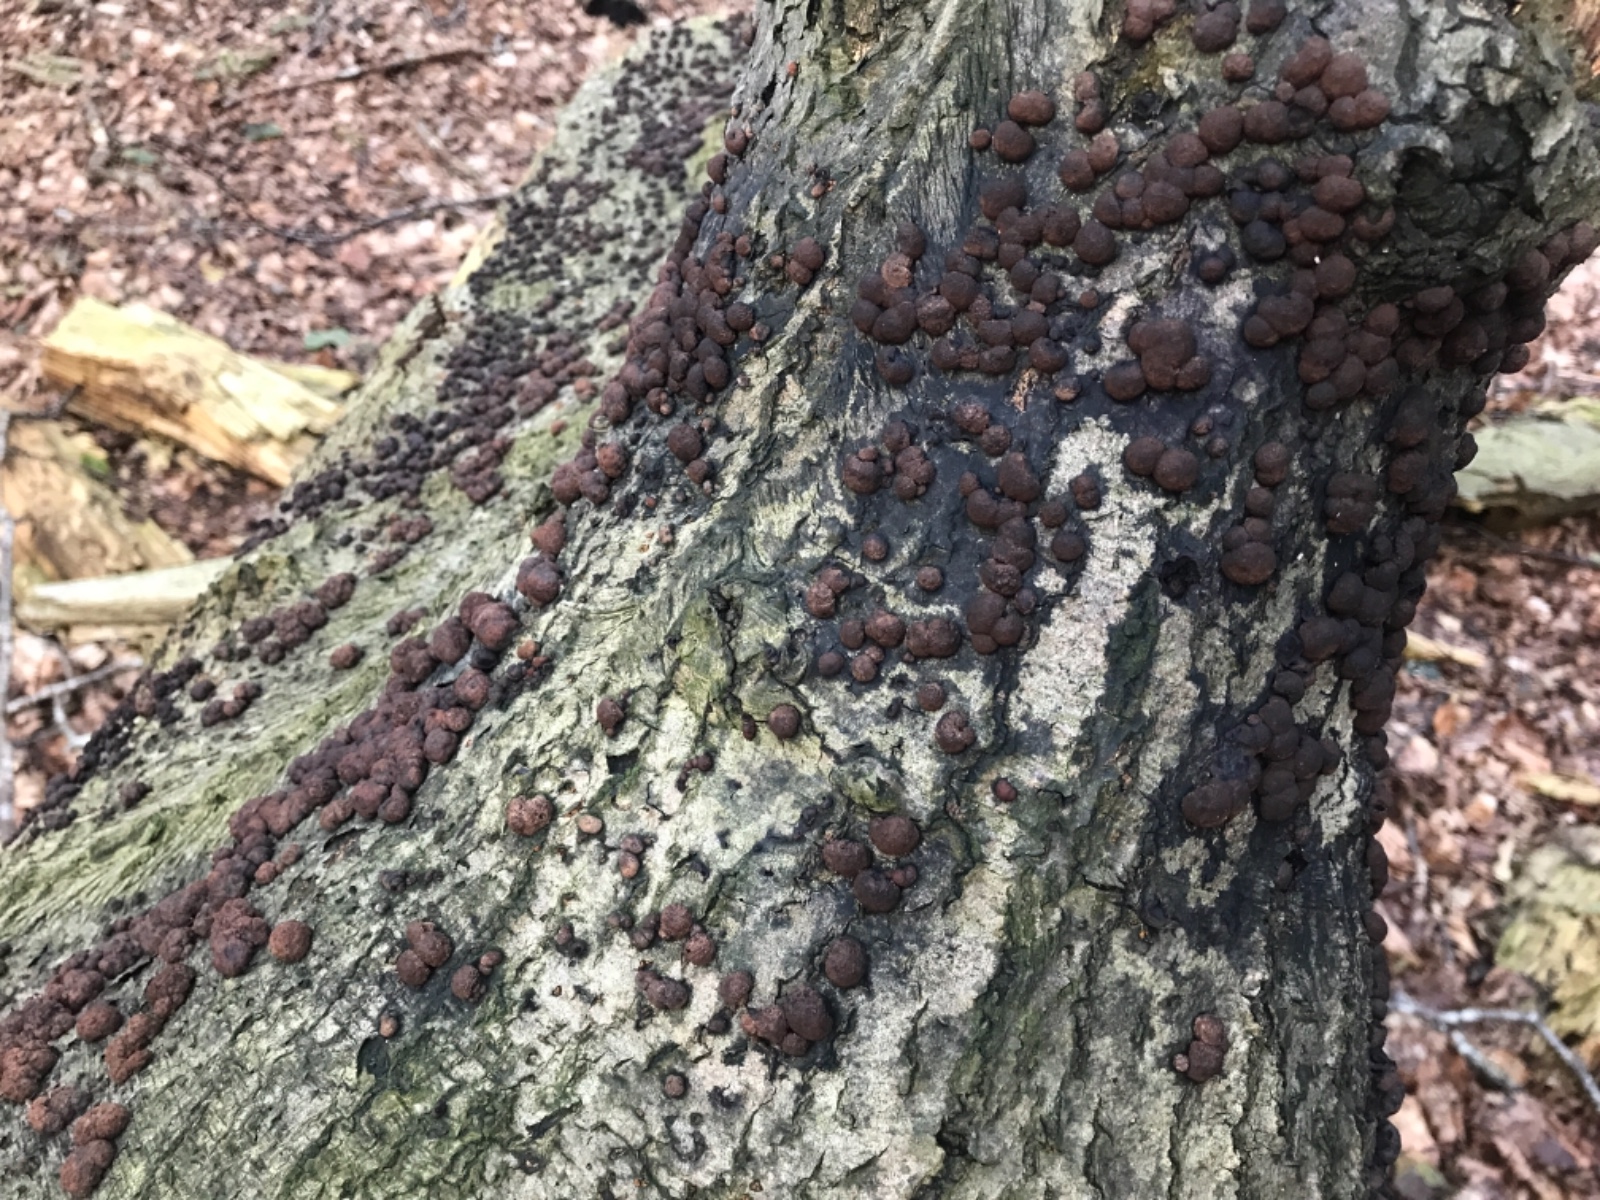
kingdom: Fungi
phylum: Ascomycota
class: Sordariomycetes
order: Xylariales
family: Hypoxylaceae
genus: Hypoxylon
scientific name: Hypoxylon fragiforme
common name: kuljordbær
